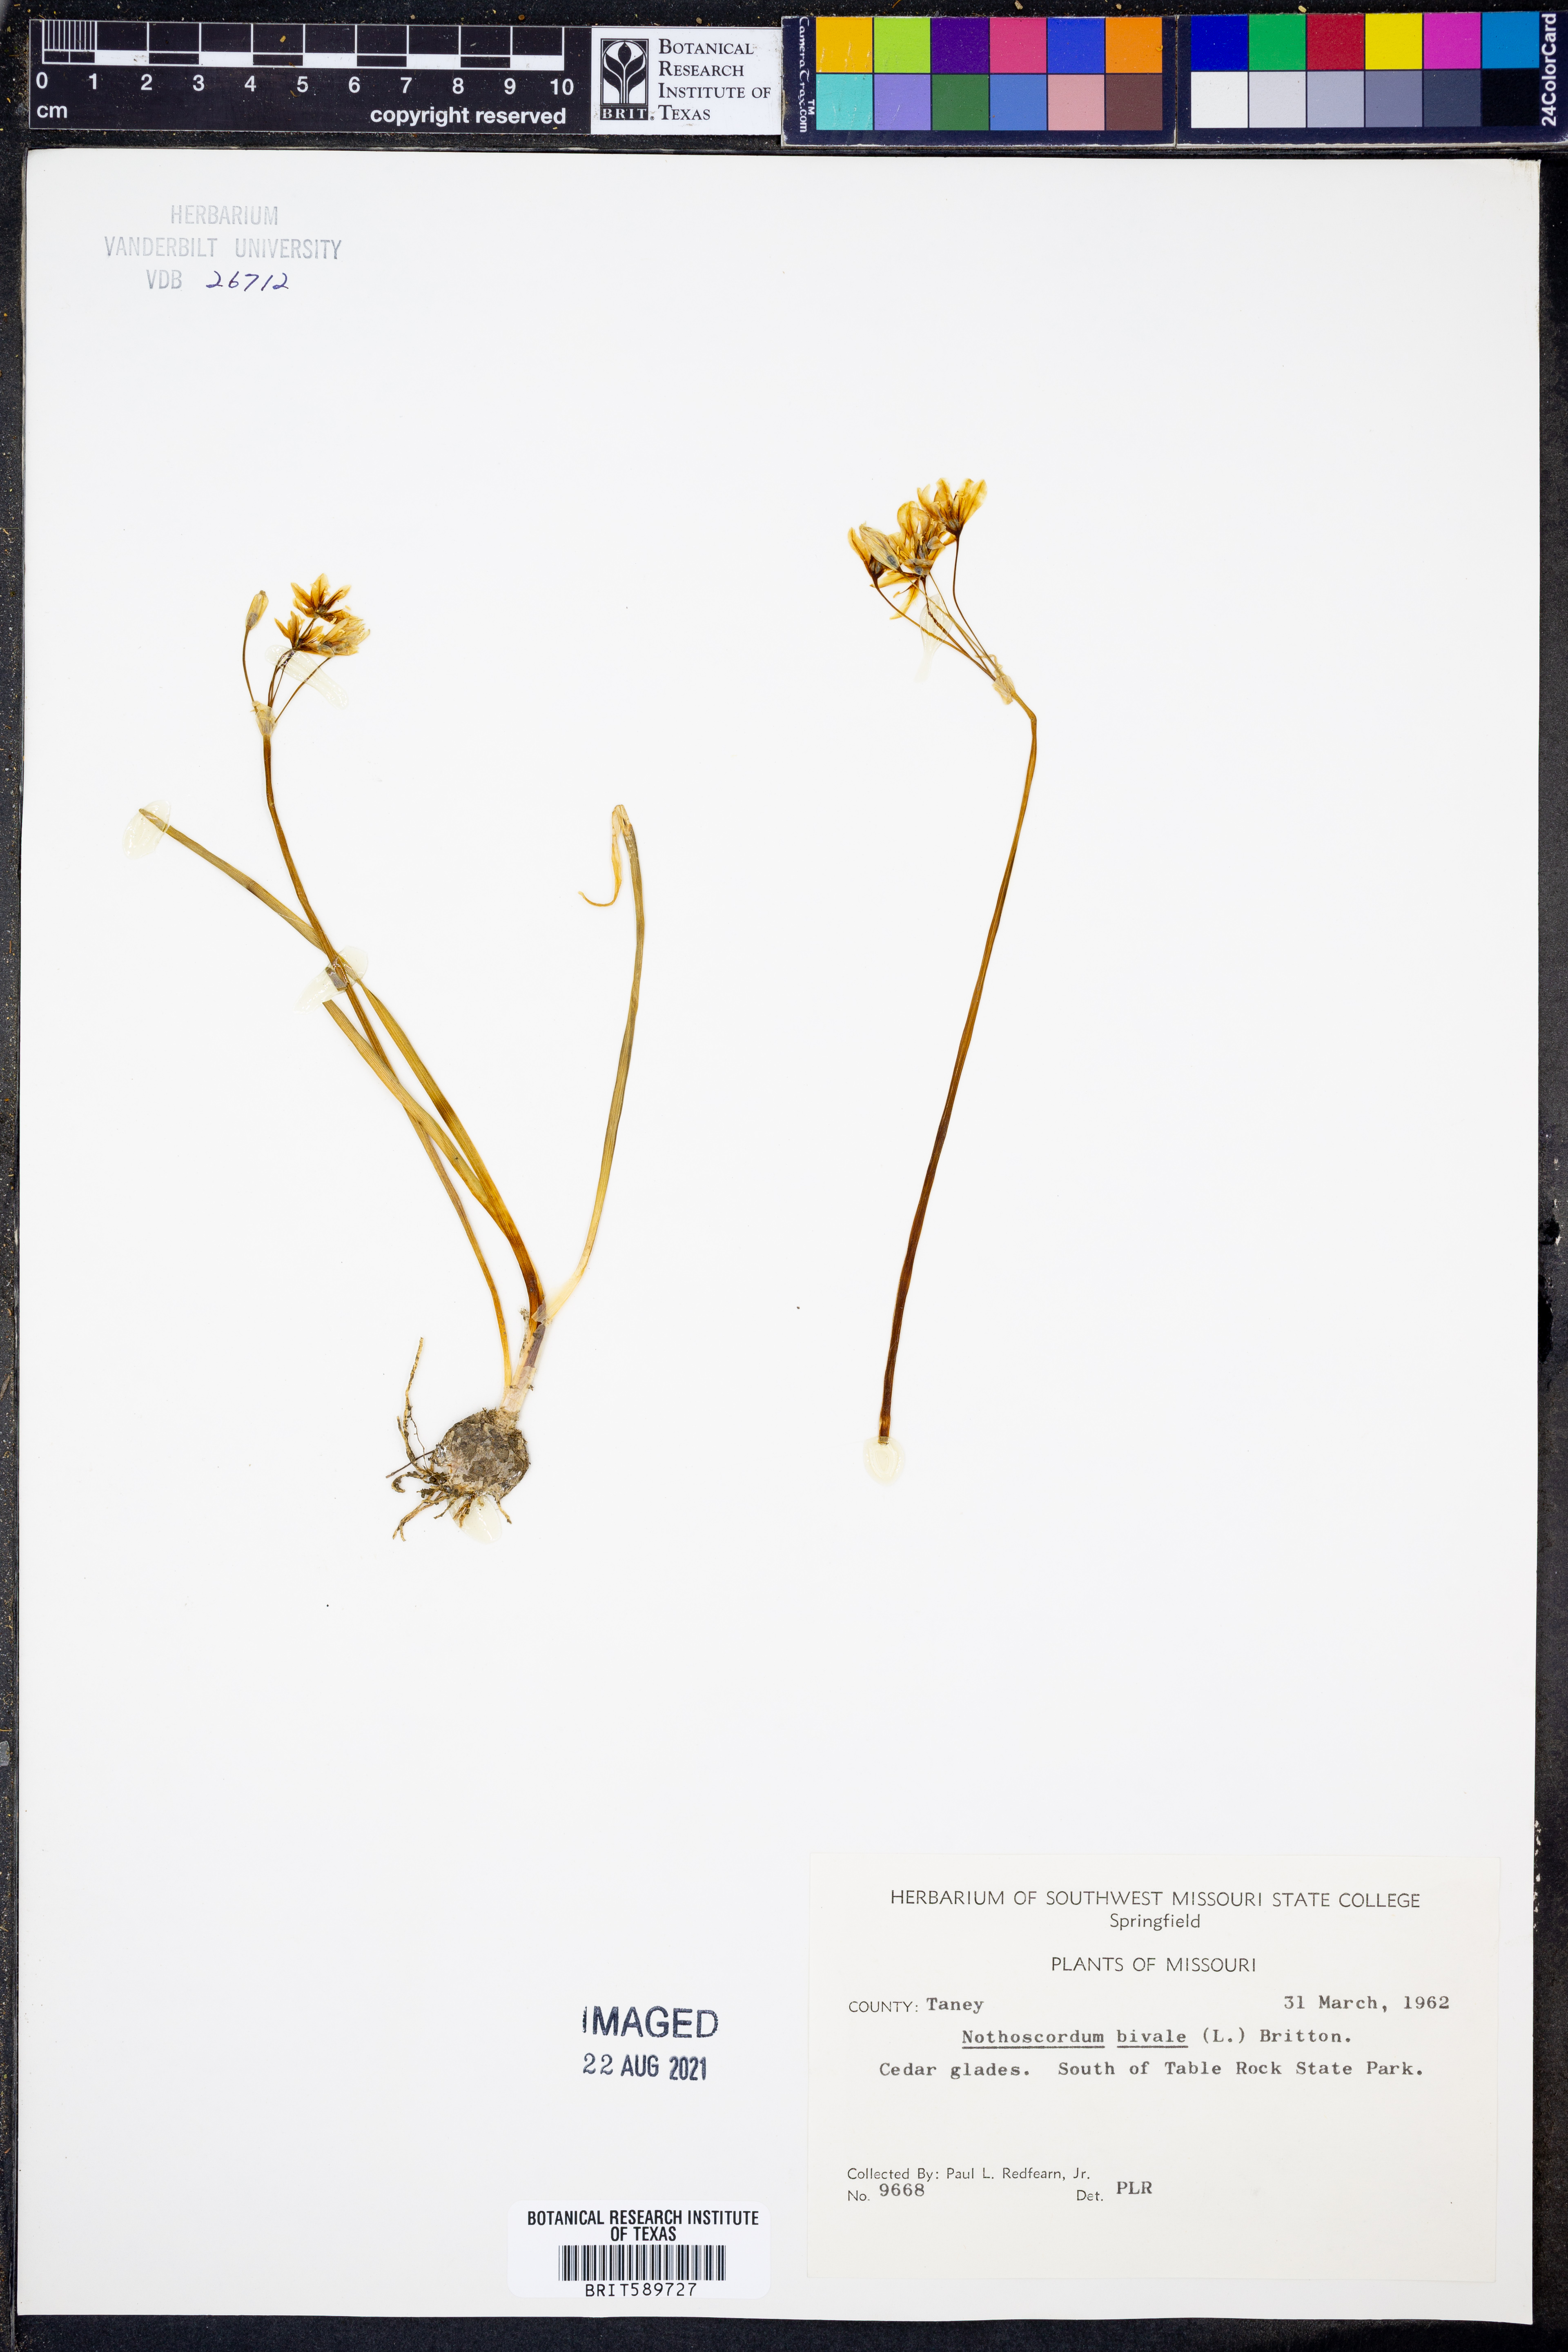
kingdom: Plantae
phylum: Tracheophyta
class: Liliopsida
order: Asparagales
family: Amaryllidaceae
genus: Nothoscordum
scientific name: Nothoscordum bivalve
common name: Crow-poison
